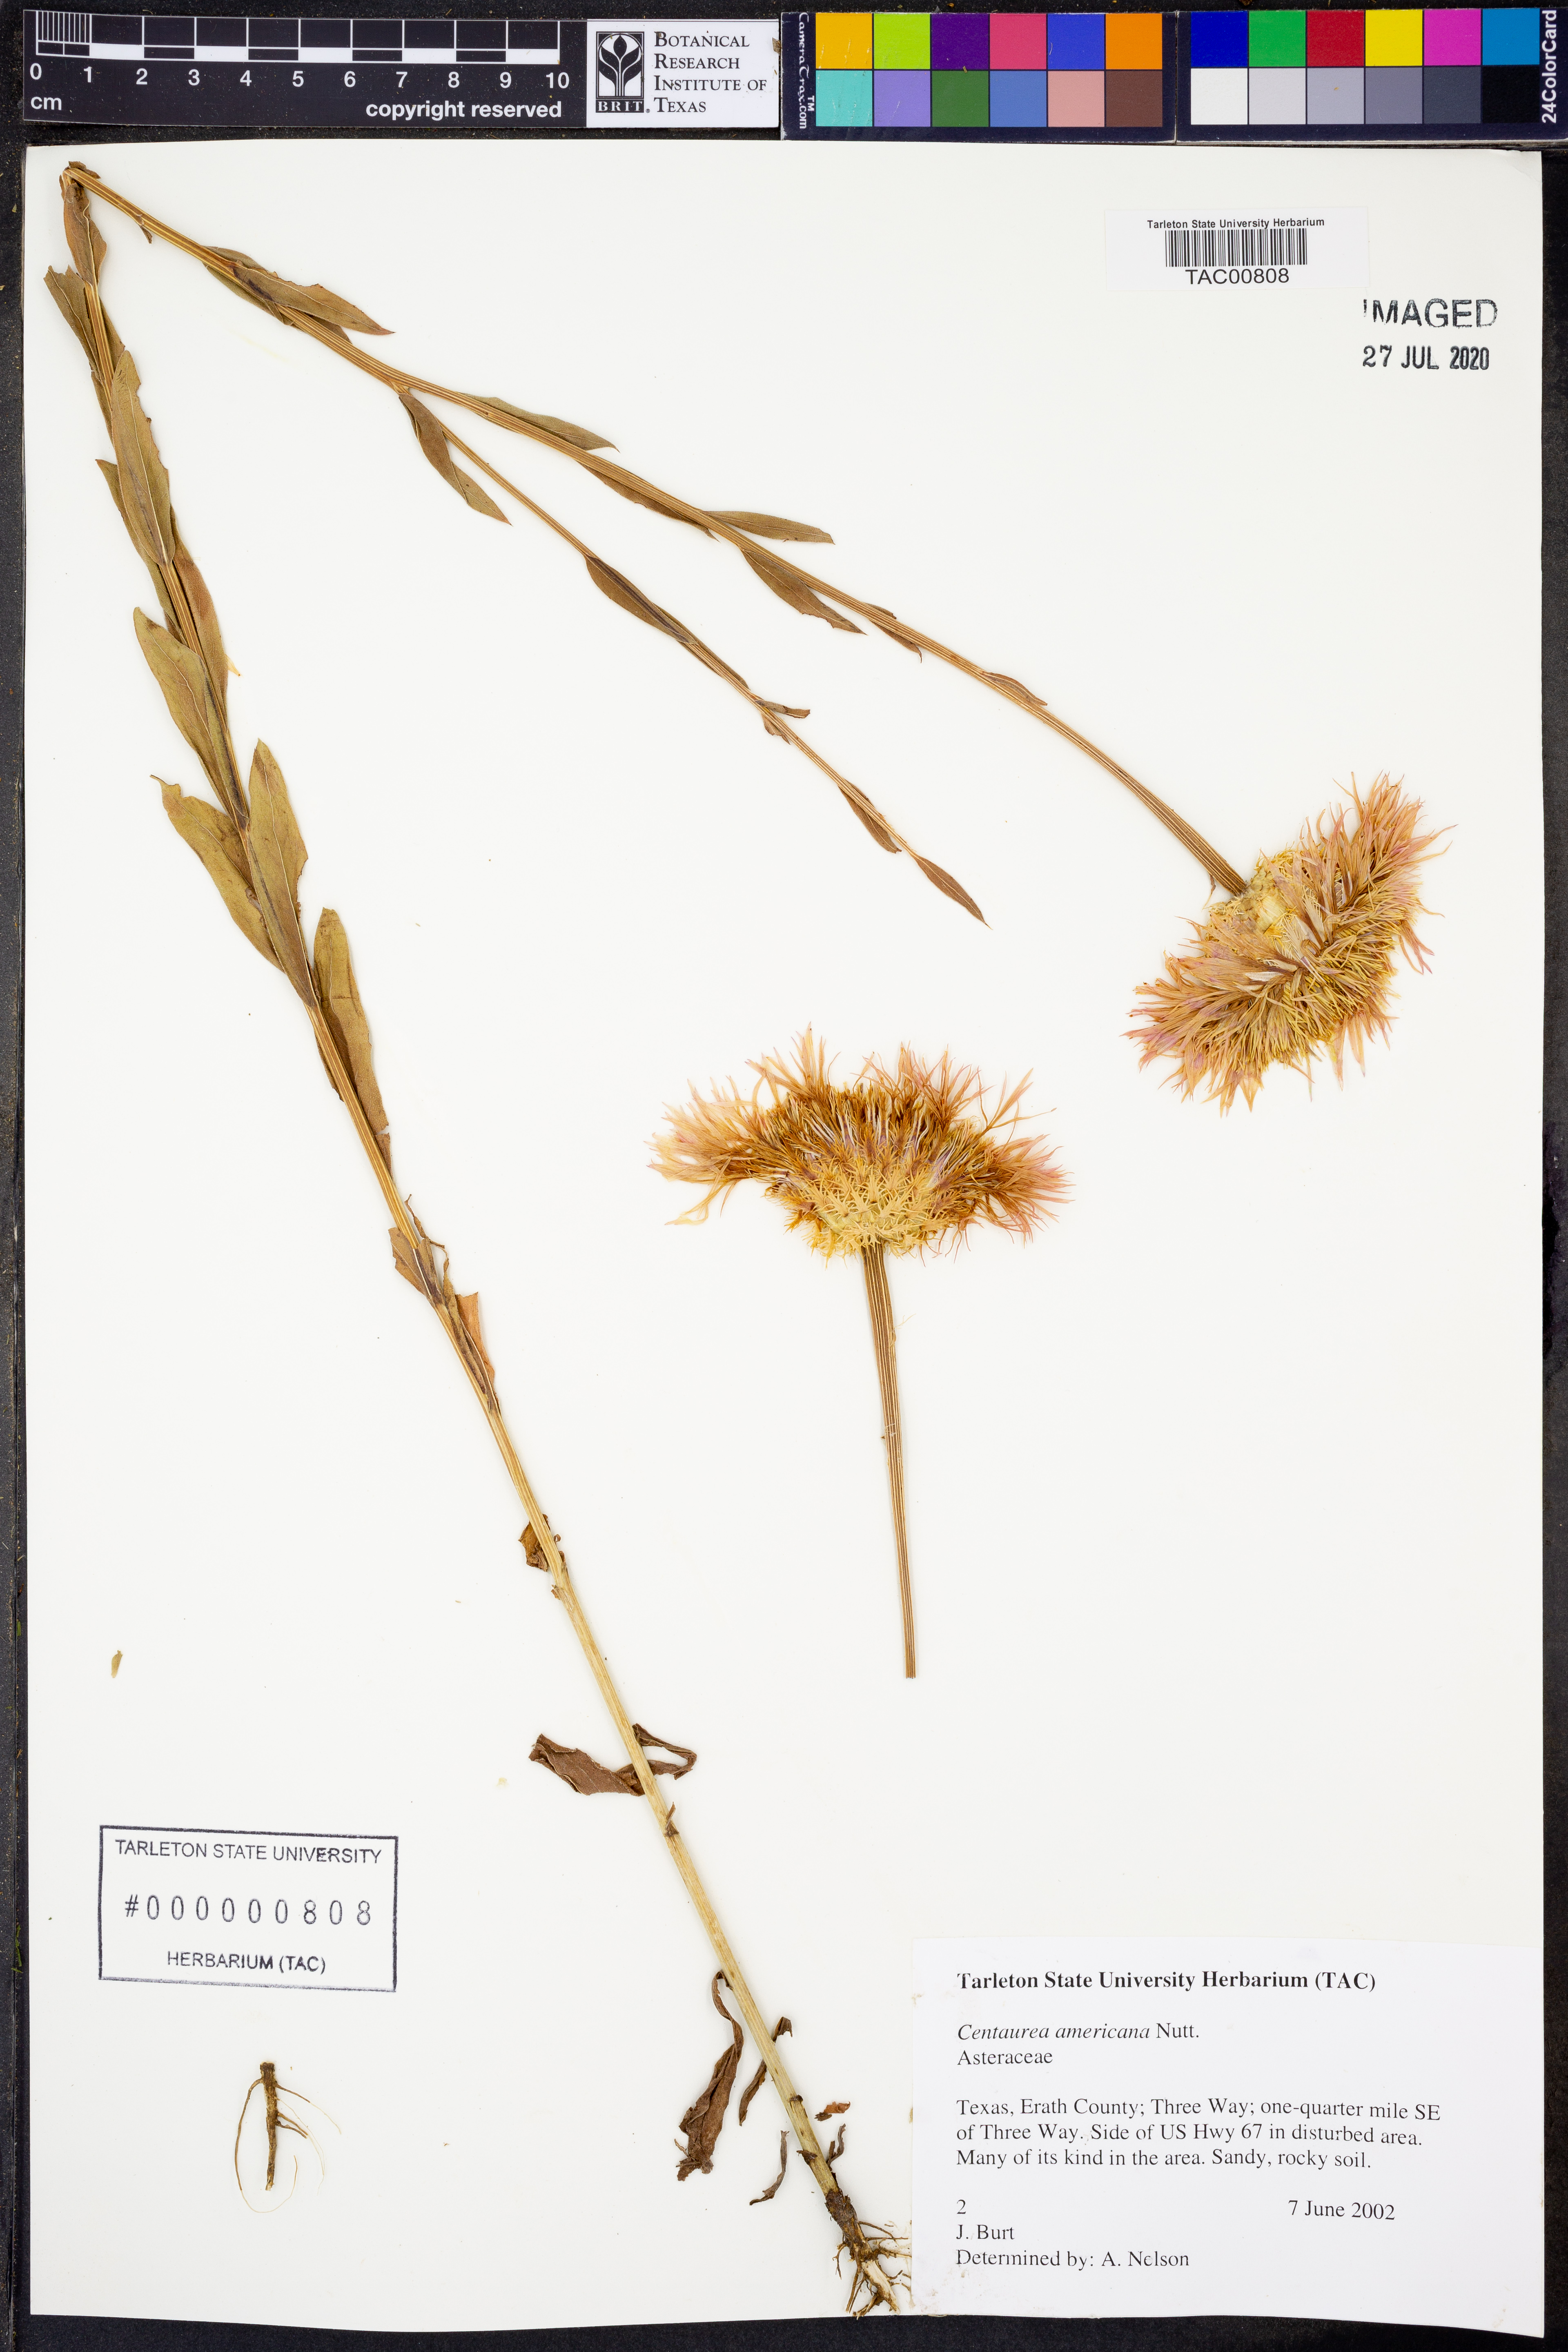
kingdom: Plantae
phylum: Tracheophyta
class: Magnoliopsida
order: Asterales
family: Asteraceae
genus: Plectocephalus
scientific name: Plectocephalus americanus
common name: American basket-flower
